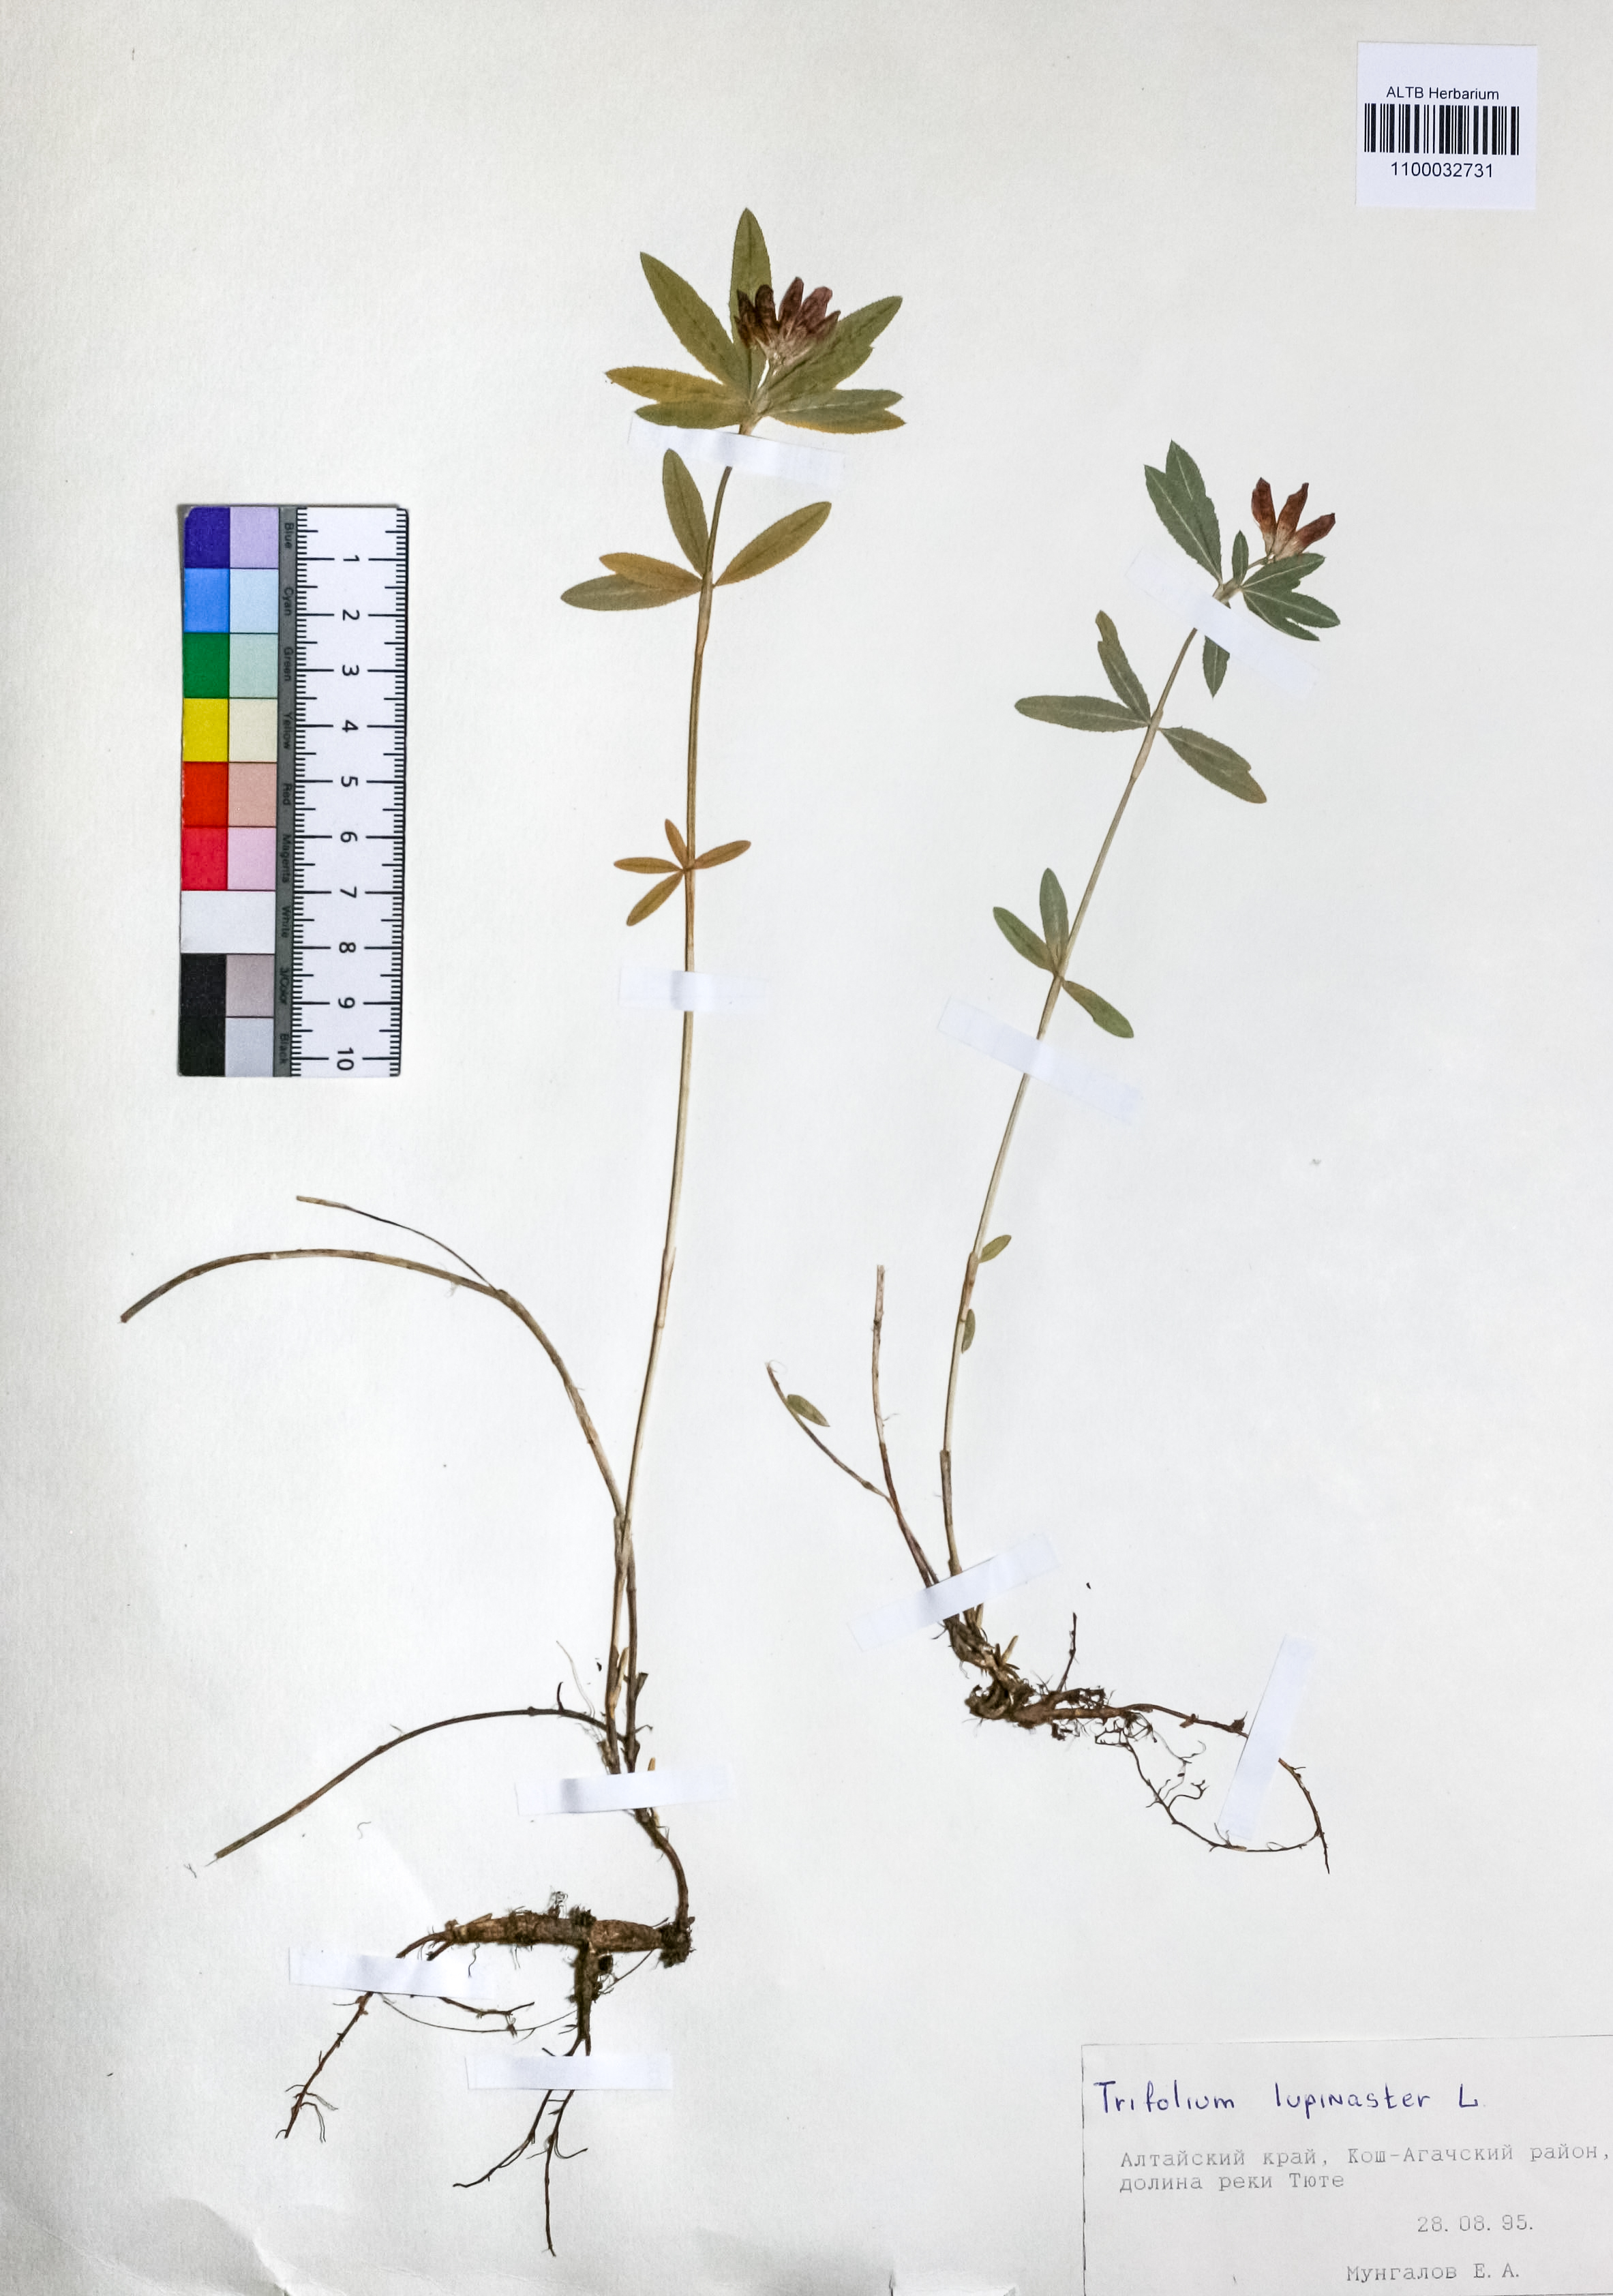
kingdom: Plantae
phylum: Tracheophyta
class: Magnoliopsida
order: Fabales
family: Fabaceae
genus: Trifolium
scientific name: Trifolium lupinaster
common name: Lupine clover
